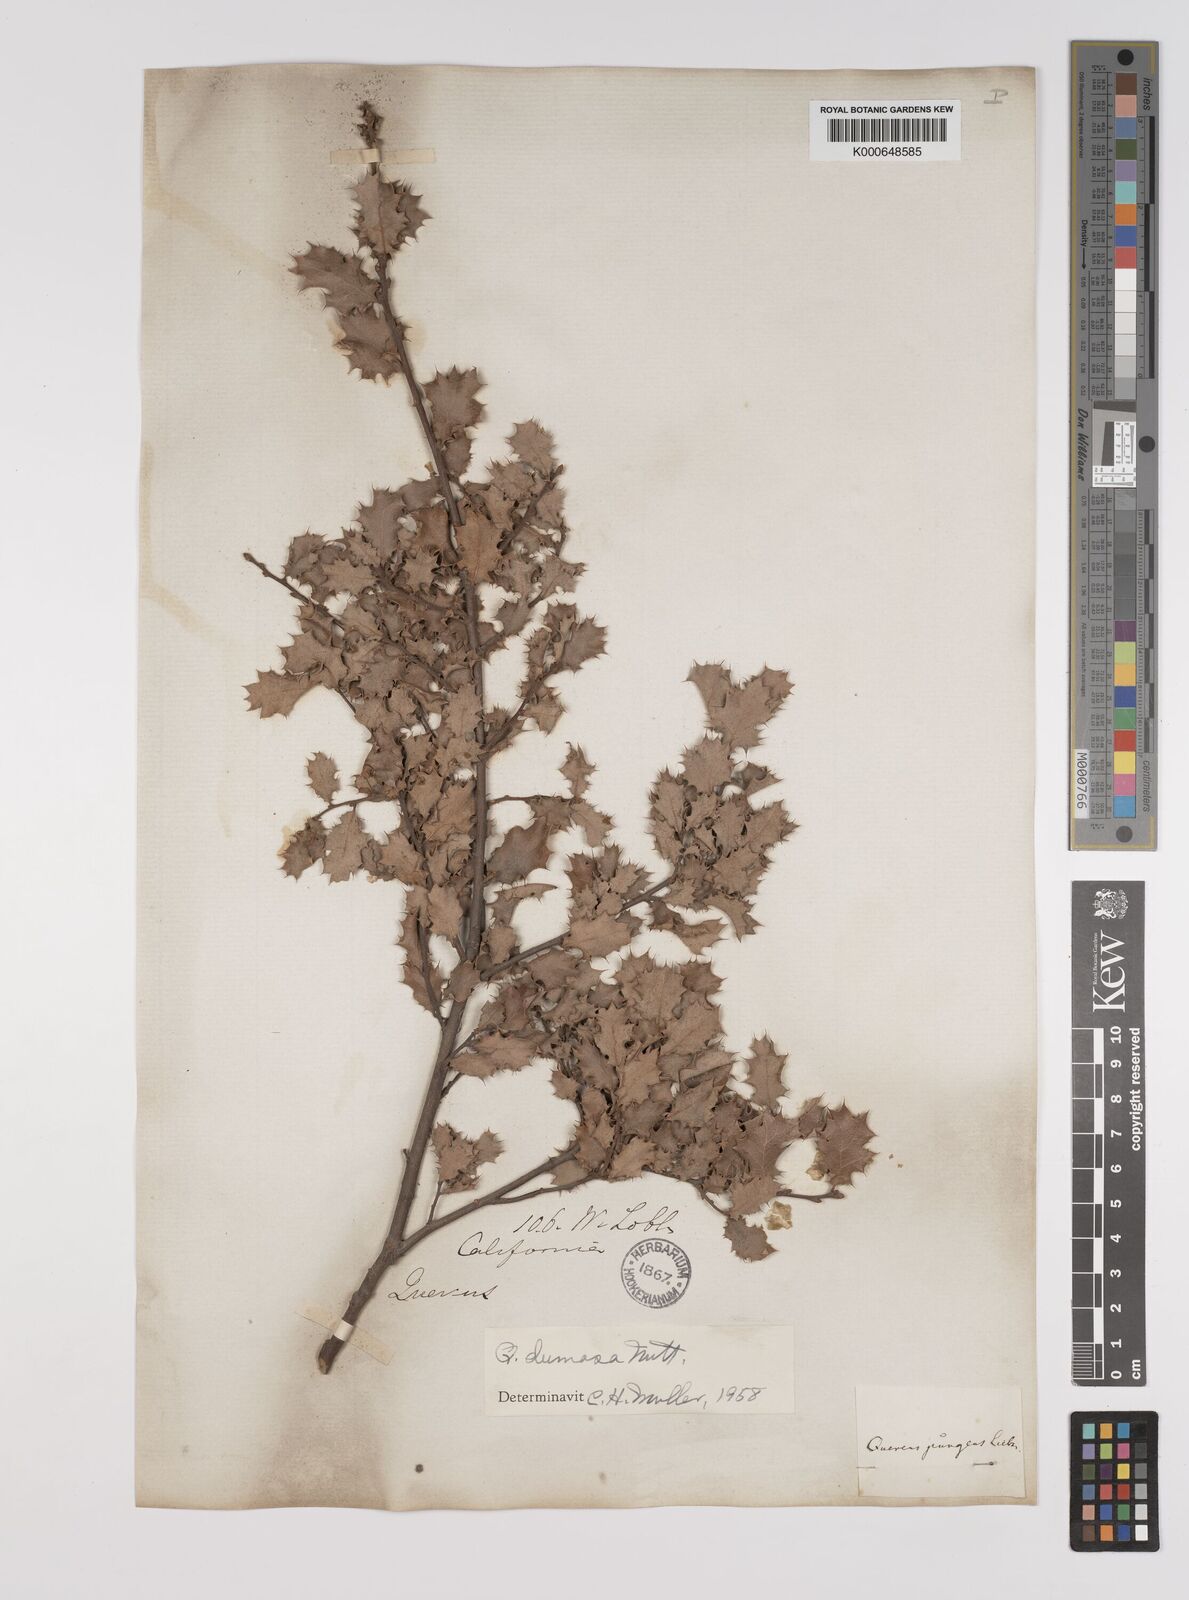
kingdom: Plantae
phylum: Tracheophyta
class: Magnoliopsida
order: Fagales
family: Fagaceae
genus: Quercus
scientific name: Quercus dumosa
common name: Coastal sage scrub oak
